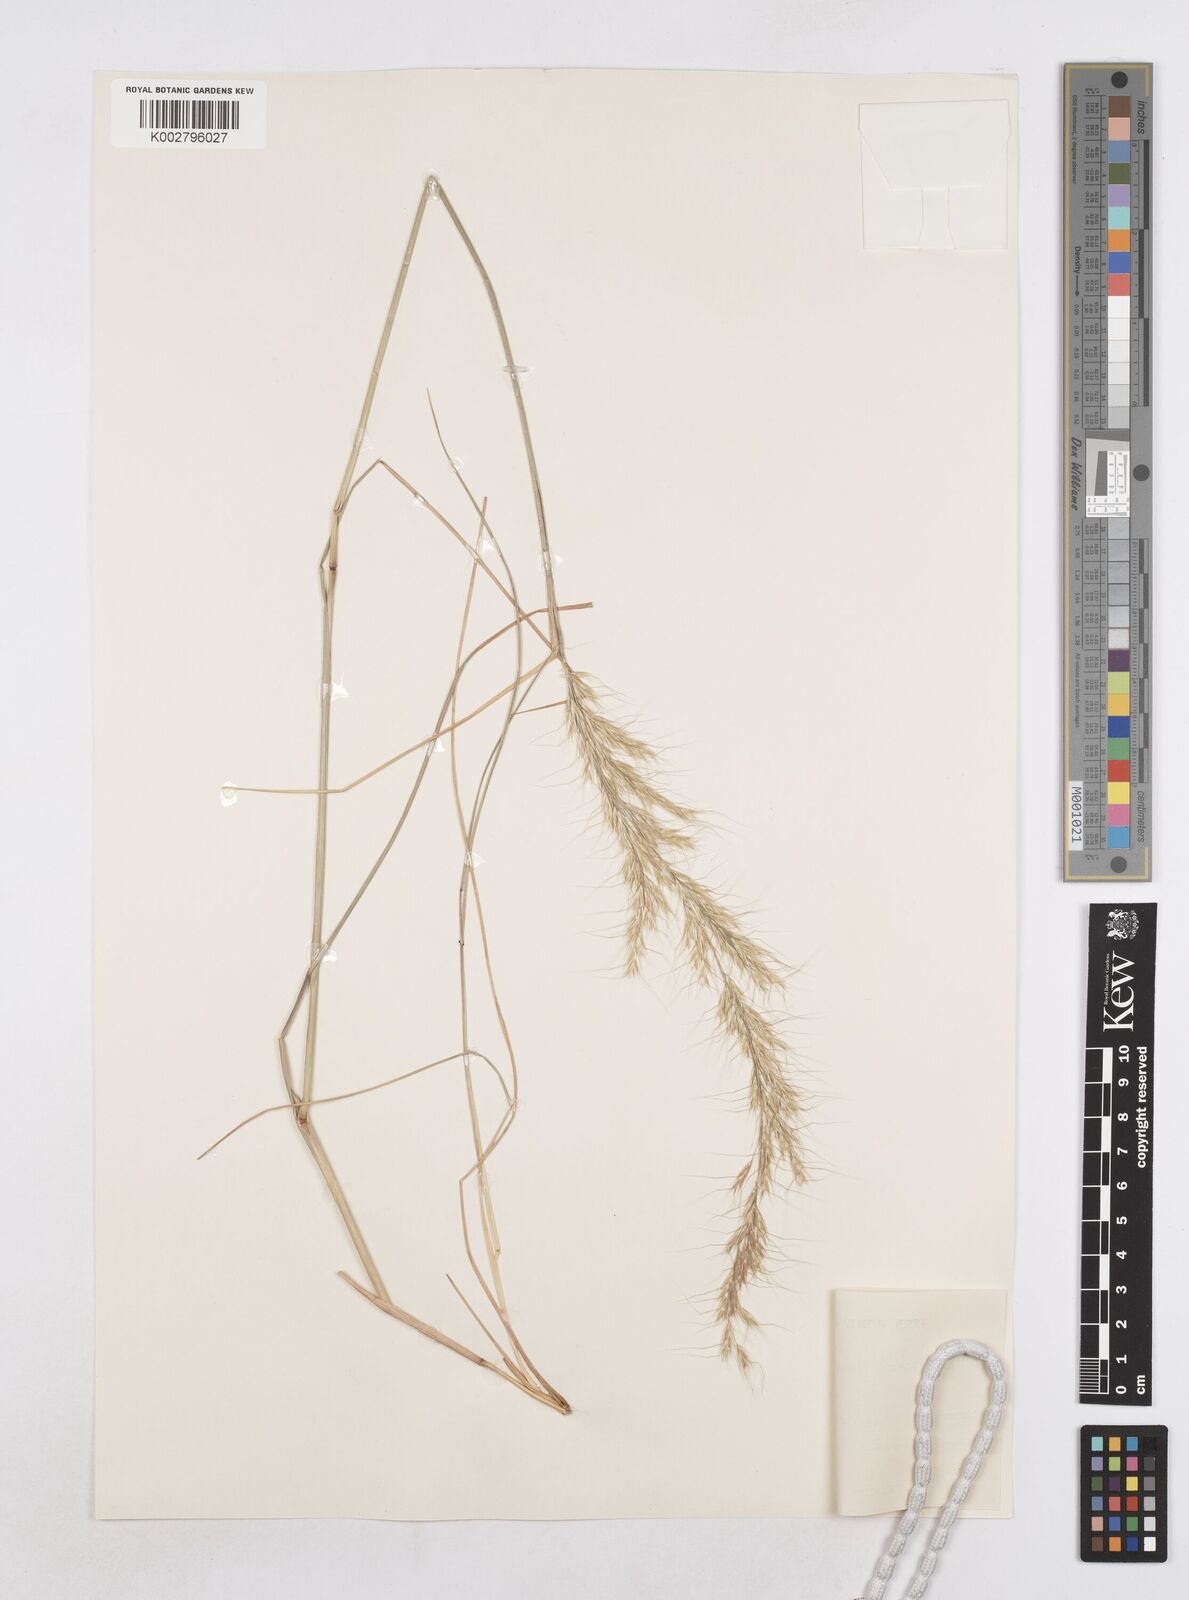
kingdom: Plantae
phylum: Tracheophyta
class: Liliopsida
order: Poales
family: Poaceae
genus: Trisetopsis
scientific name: Trisetopsis longa
